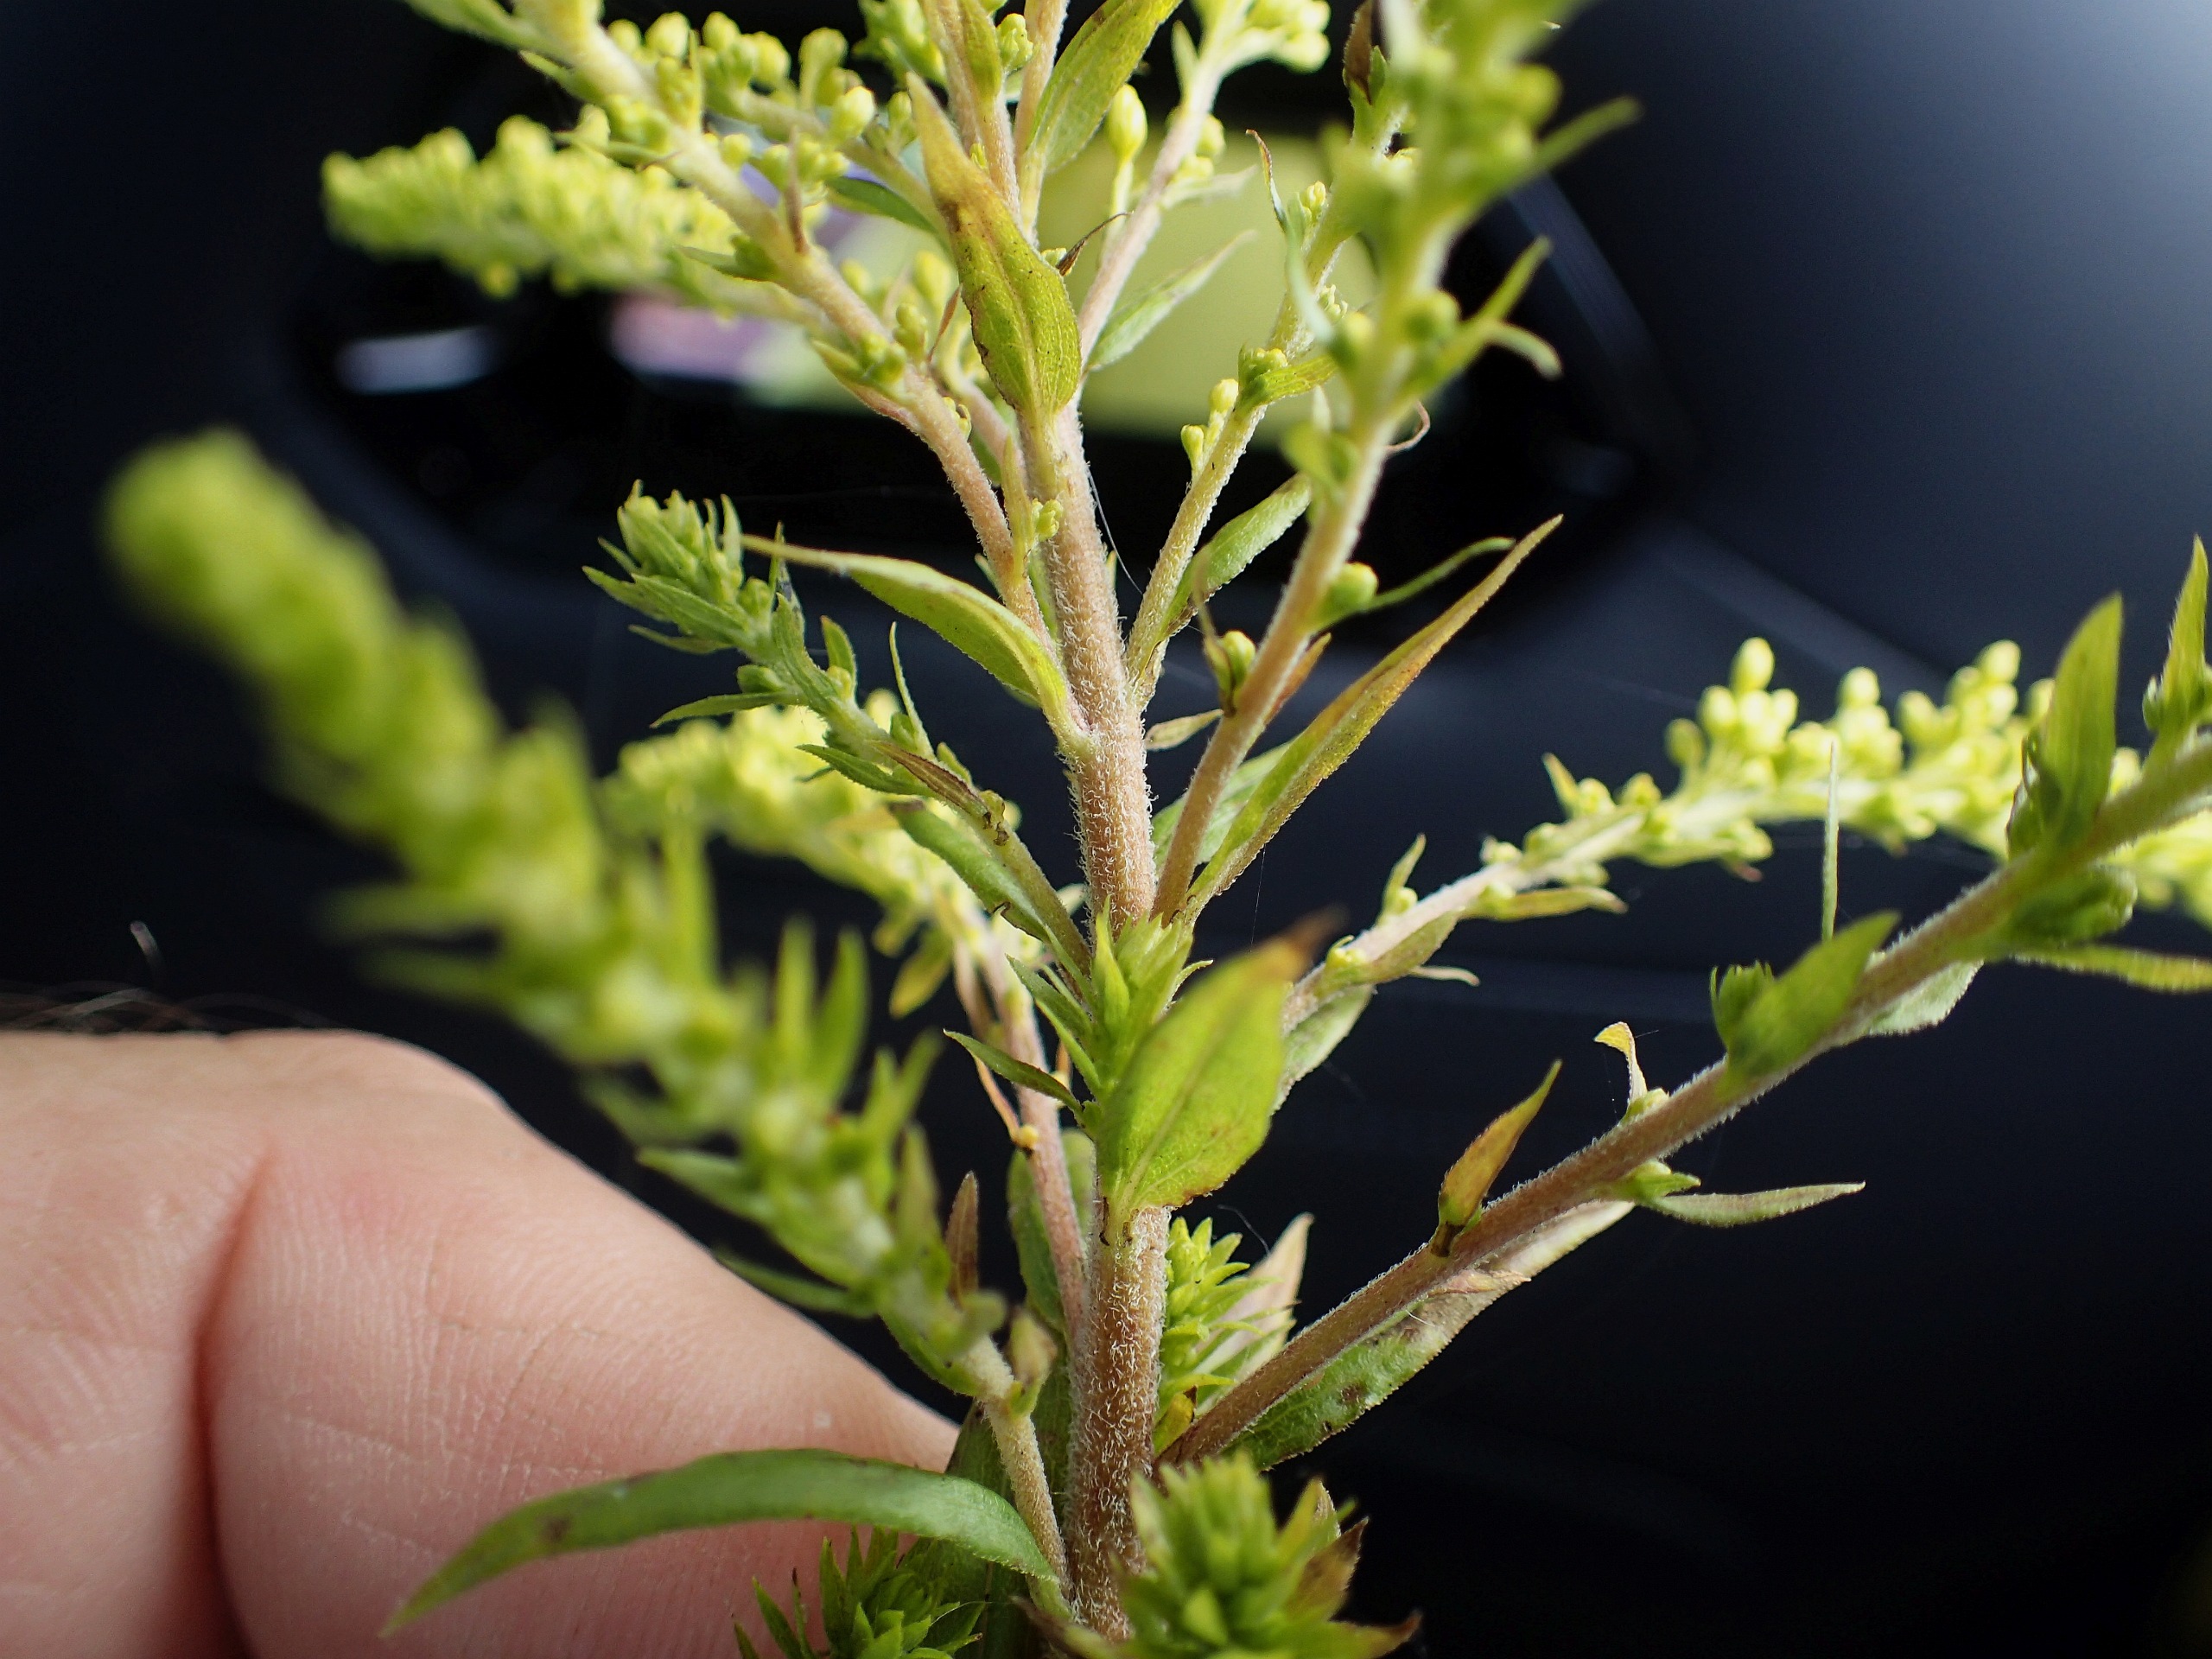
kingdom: Plantae
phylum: Tracheophyta
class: Magnoliopsida
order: Asterales
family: Asteraceae
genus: Solidago
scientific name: Solidago canadensis
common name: Kanadisk gyldenris
